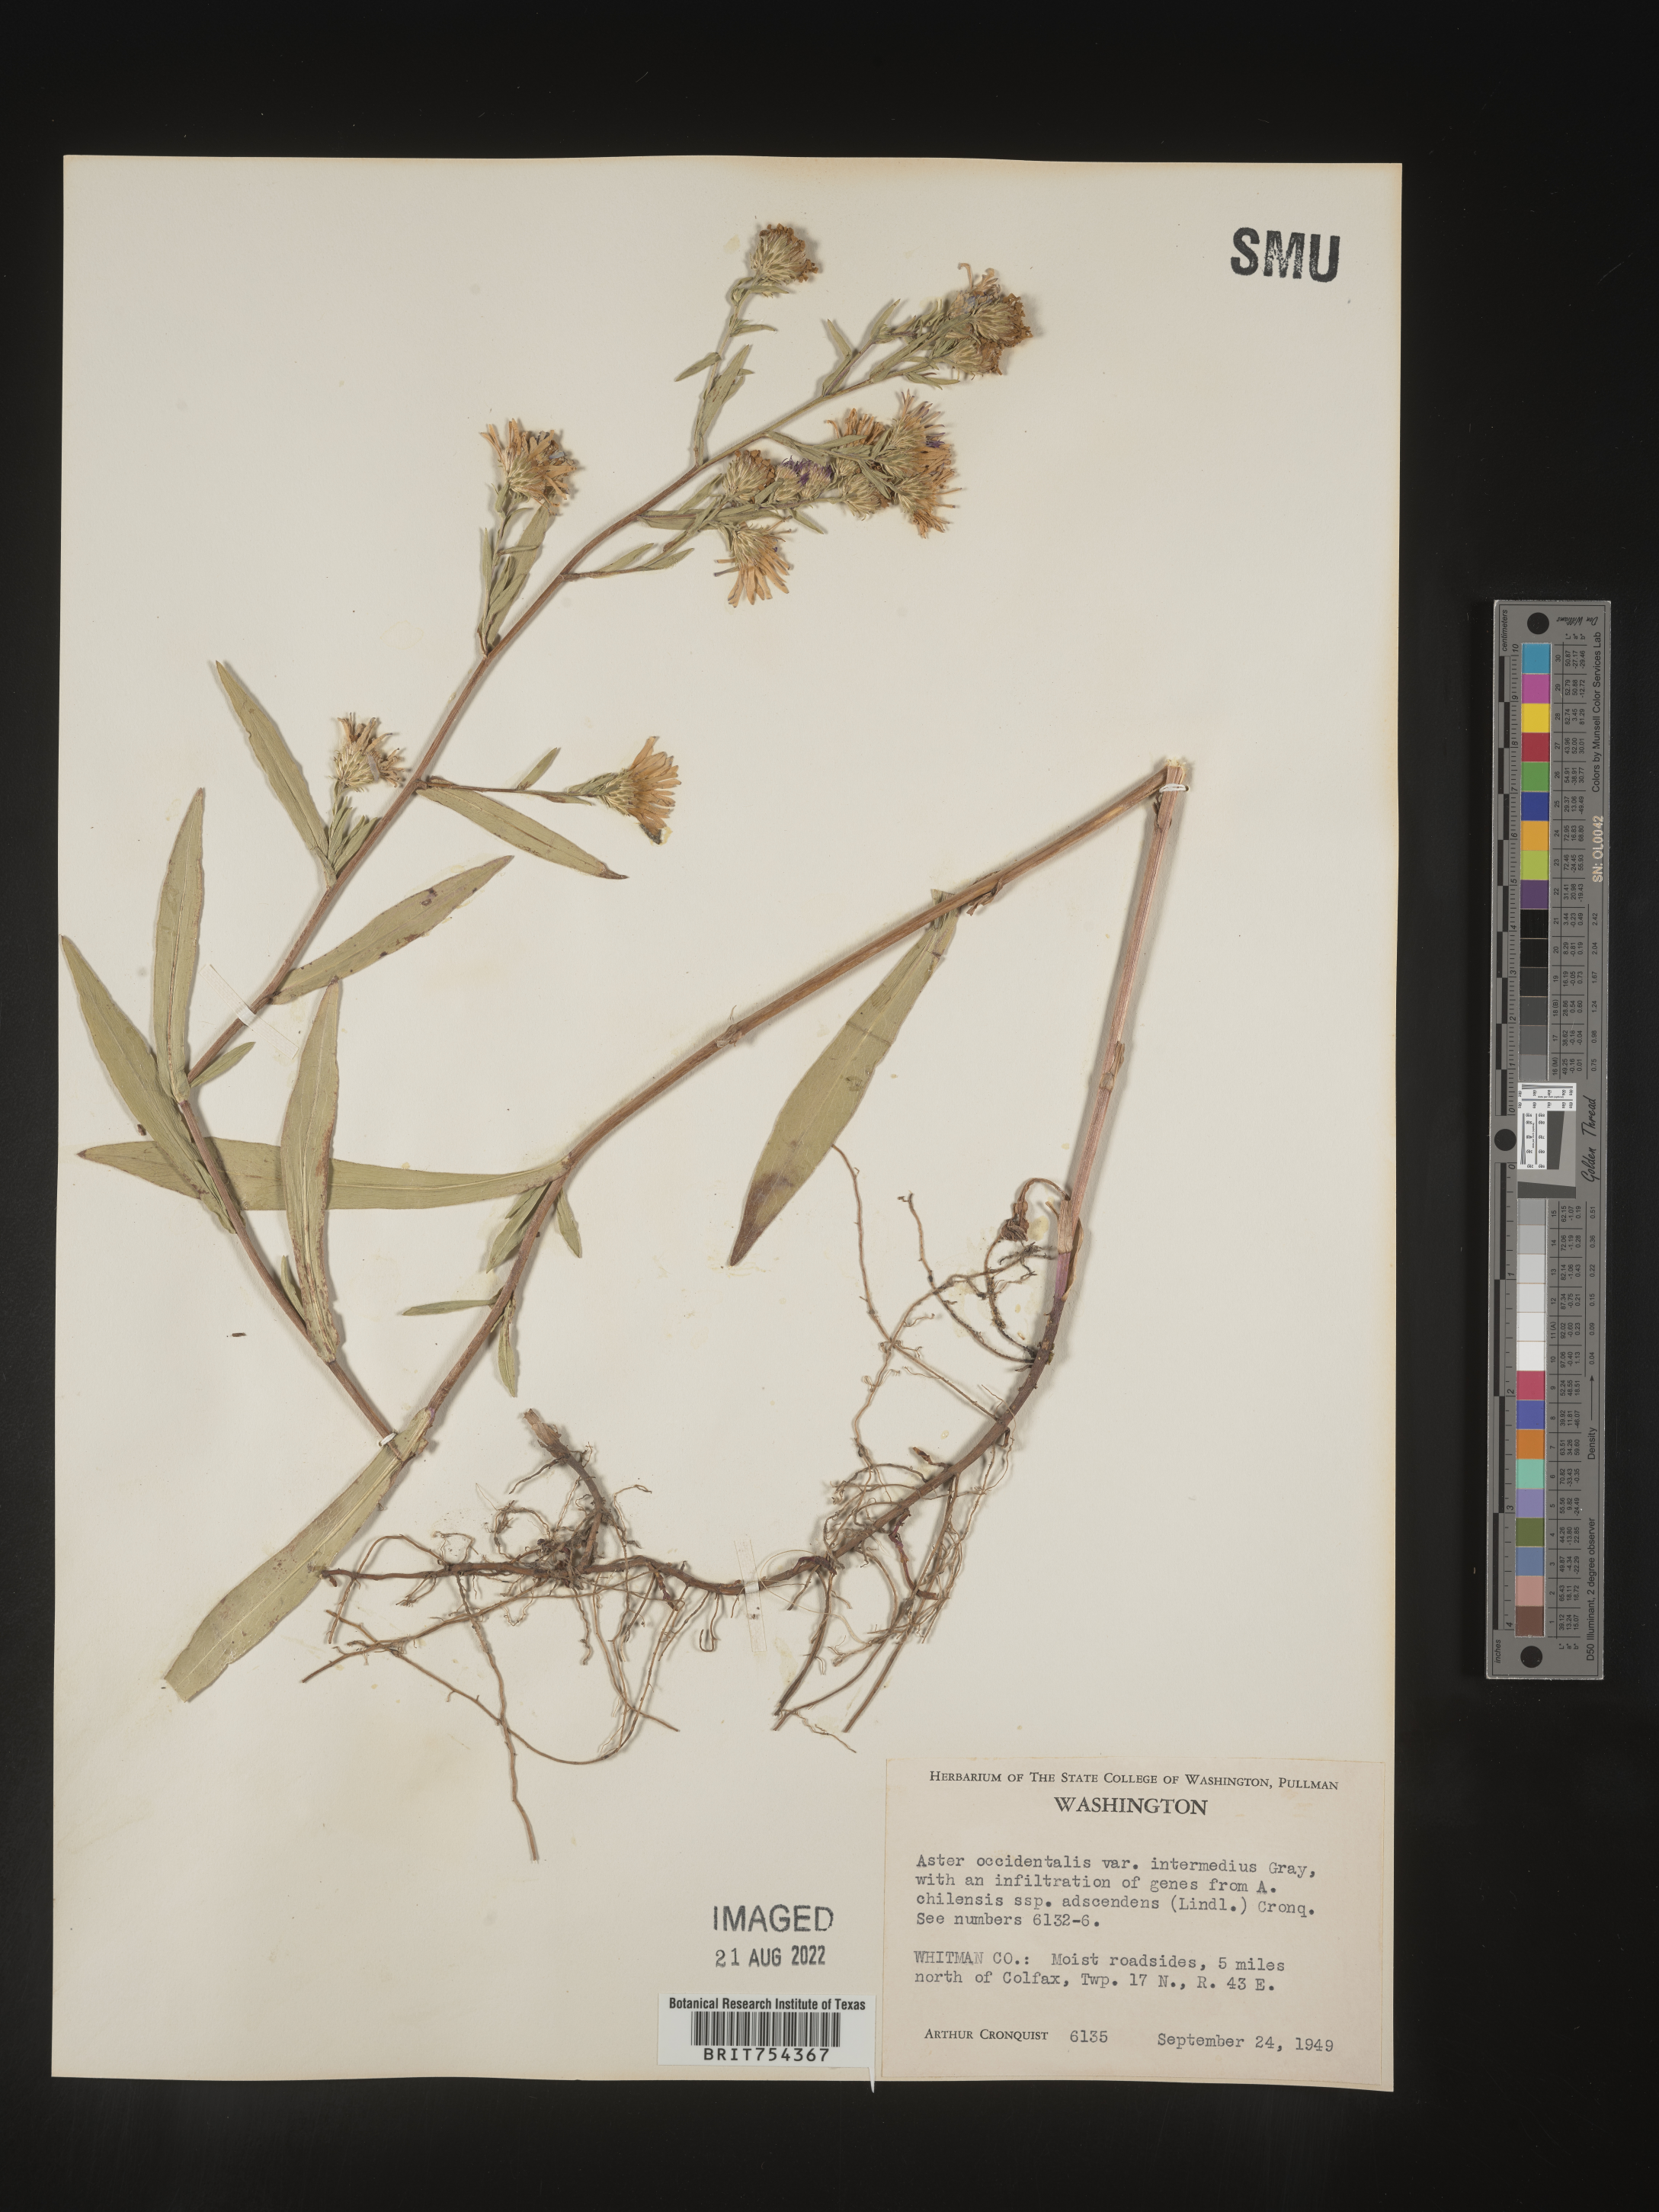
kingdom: Plantae
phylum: Tracheophyta
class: Magnoliopsida
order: Asterales
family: Asteraceae
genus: Symphyotrichum
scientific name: Symphyotrichum spathulatum
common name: Western mountain aster
